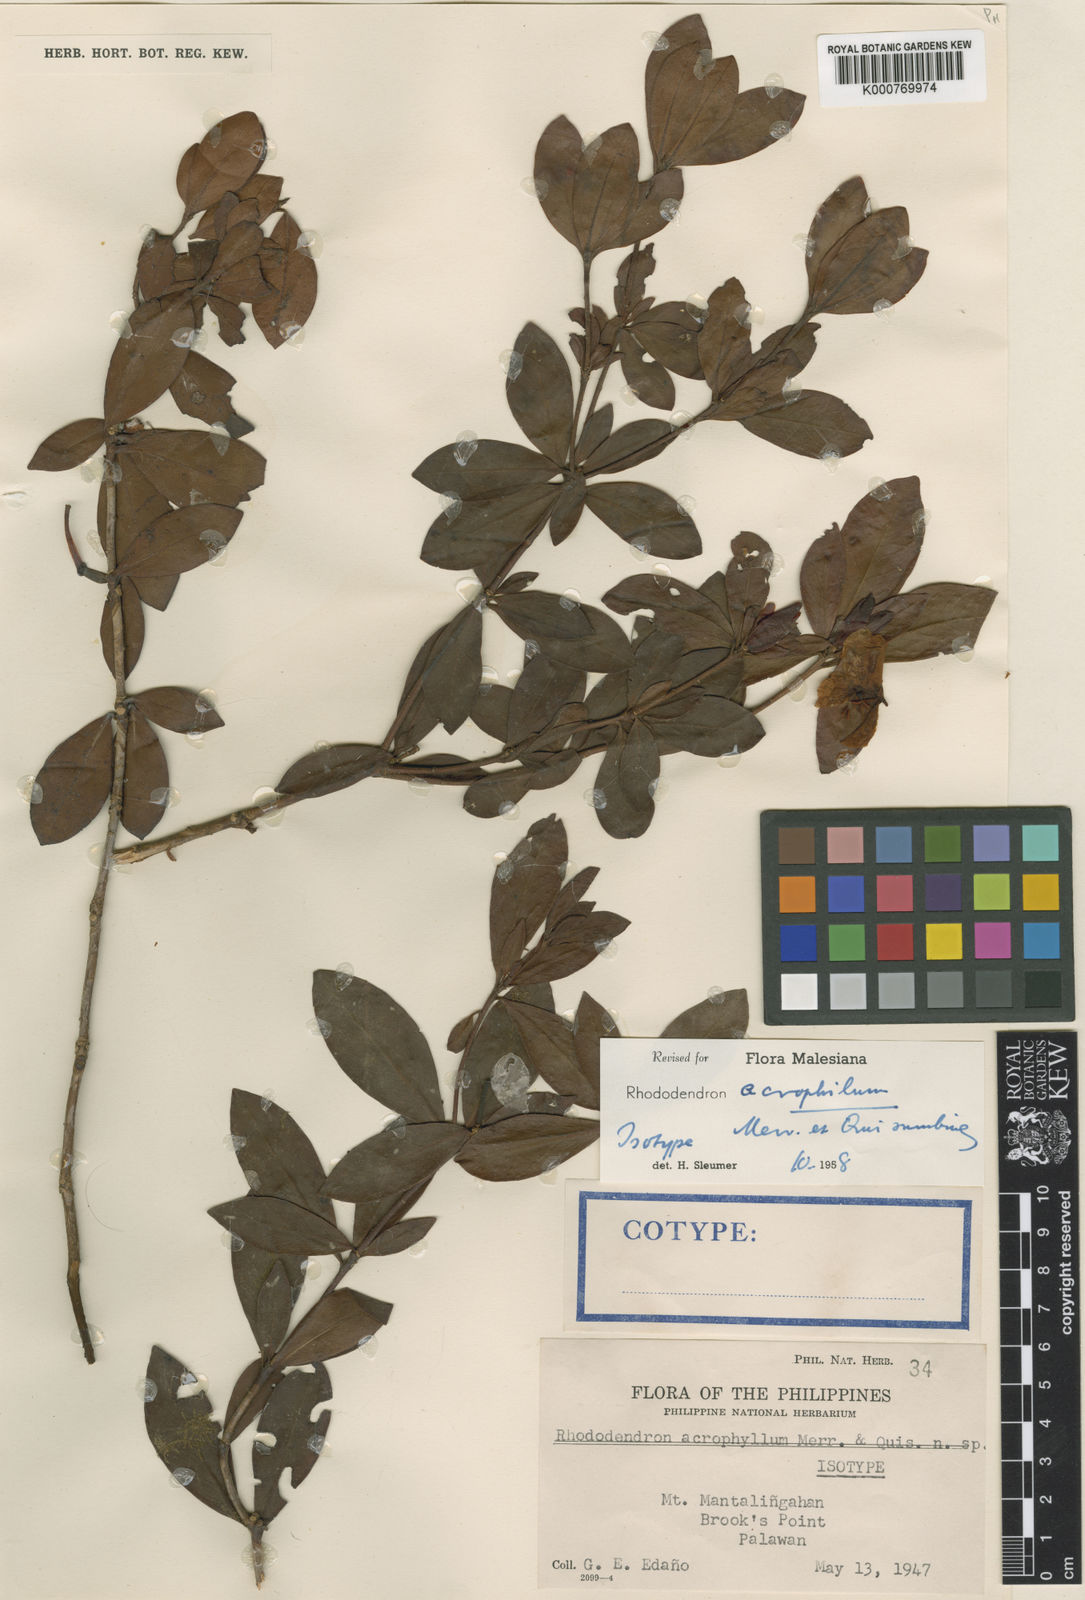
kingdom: Plantae
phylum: Tracheophyta
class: Magnoliopsida
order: Ericales
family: Ericaceae
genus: Rhododendron
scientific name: Rhododendron acrophilum
